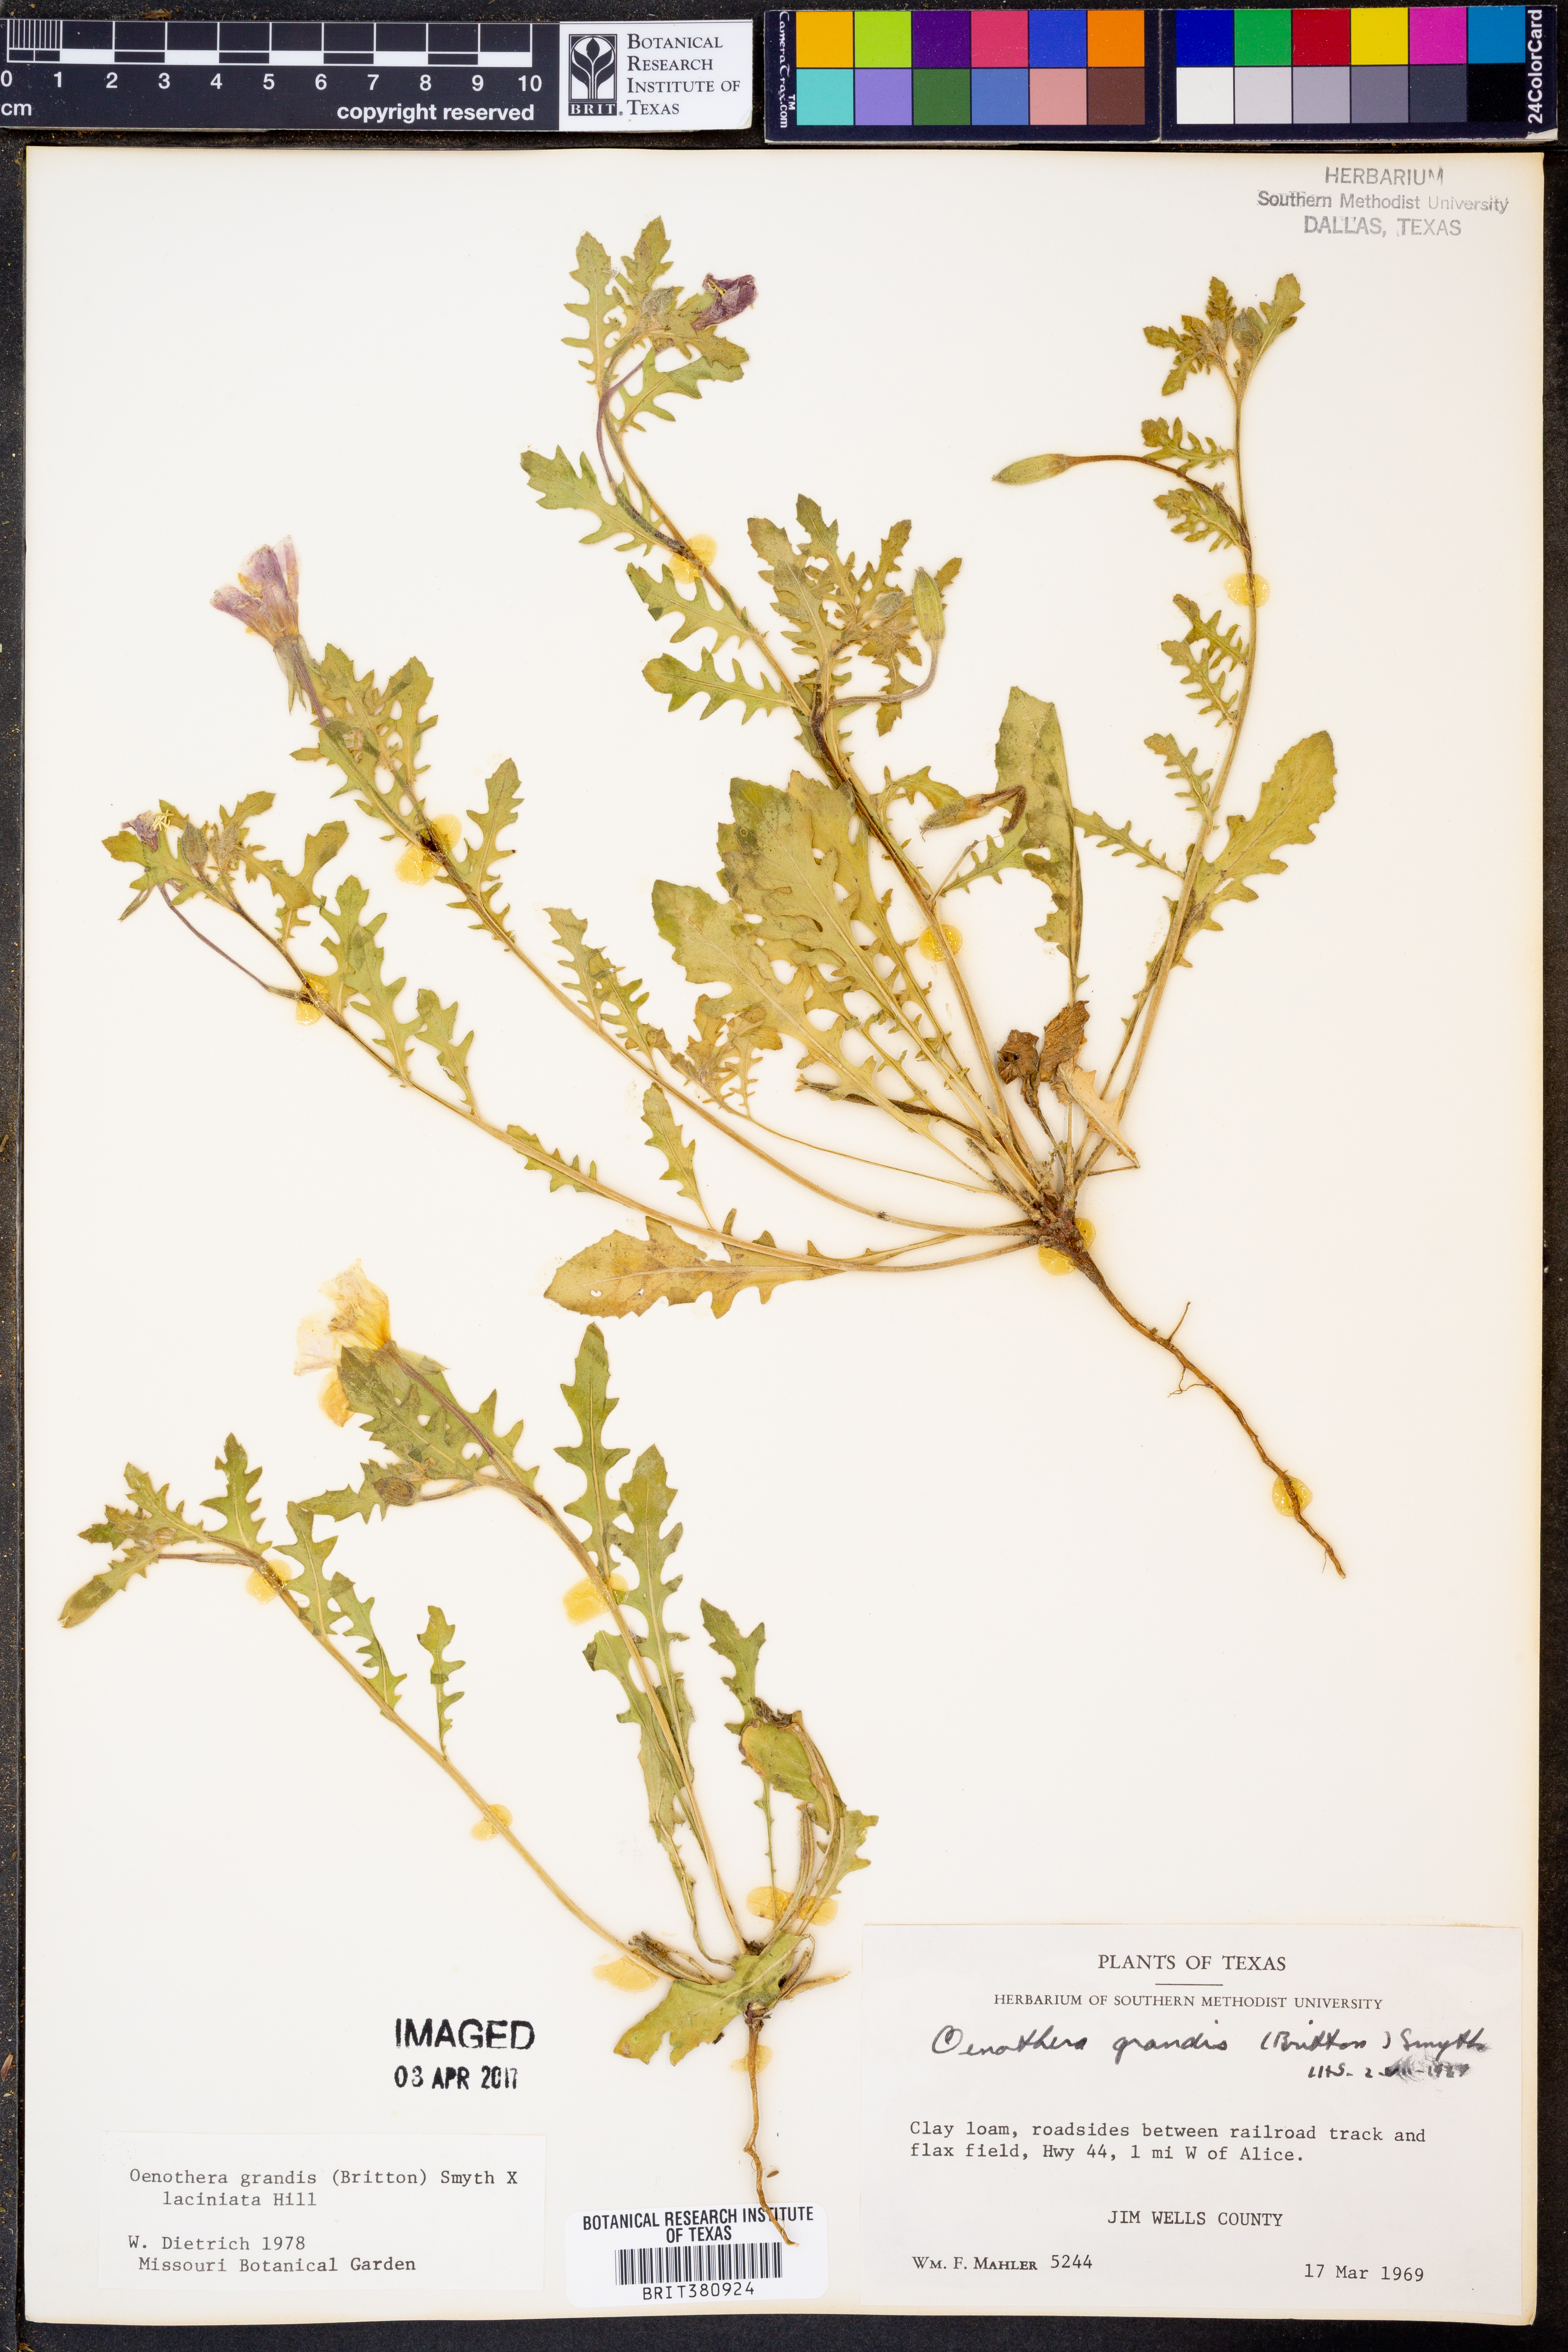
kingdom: Plantae
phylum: Tracheophyta
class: Magnoliopsida
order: Myrtales
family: Onagraceae
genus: Oenothera
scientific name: Oenothera grandis
